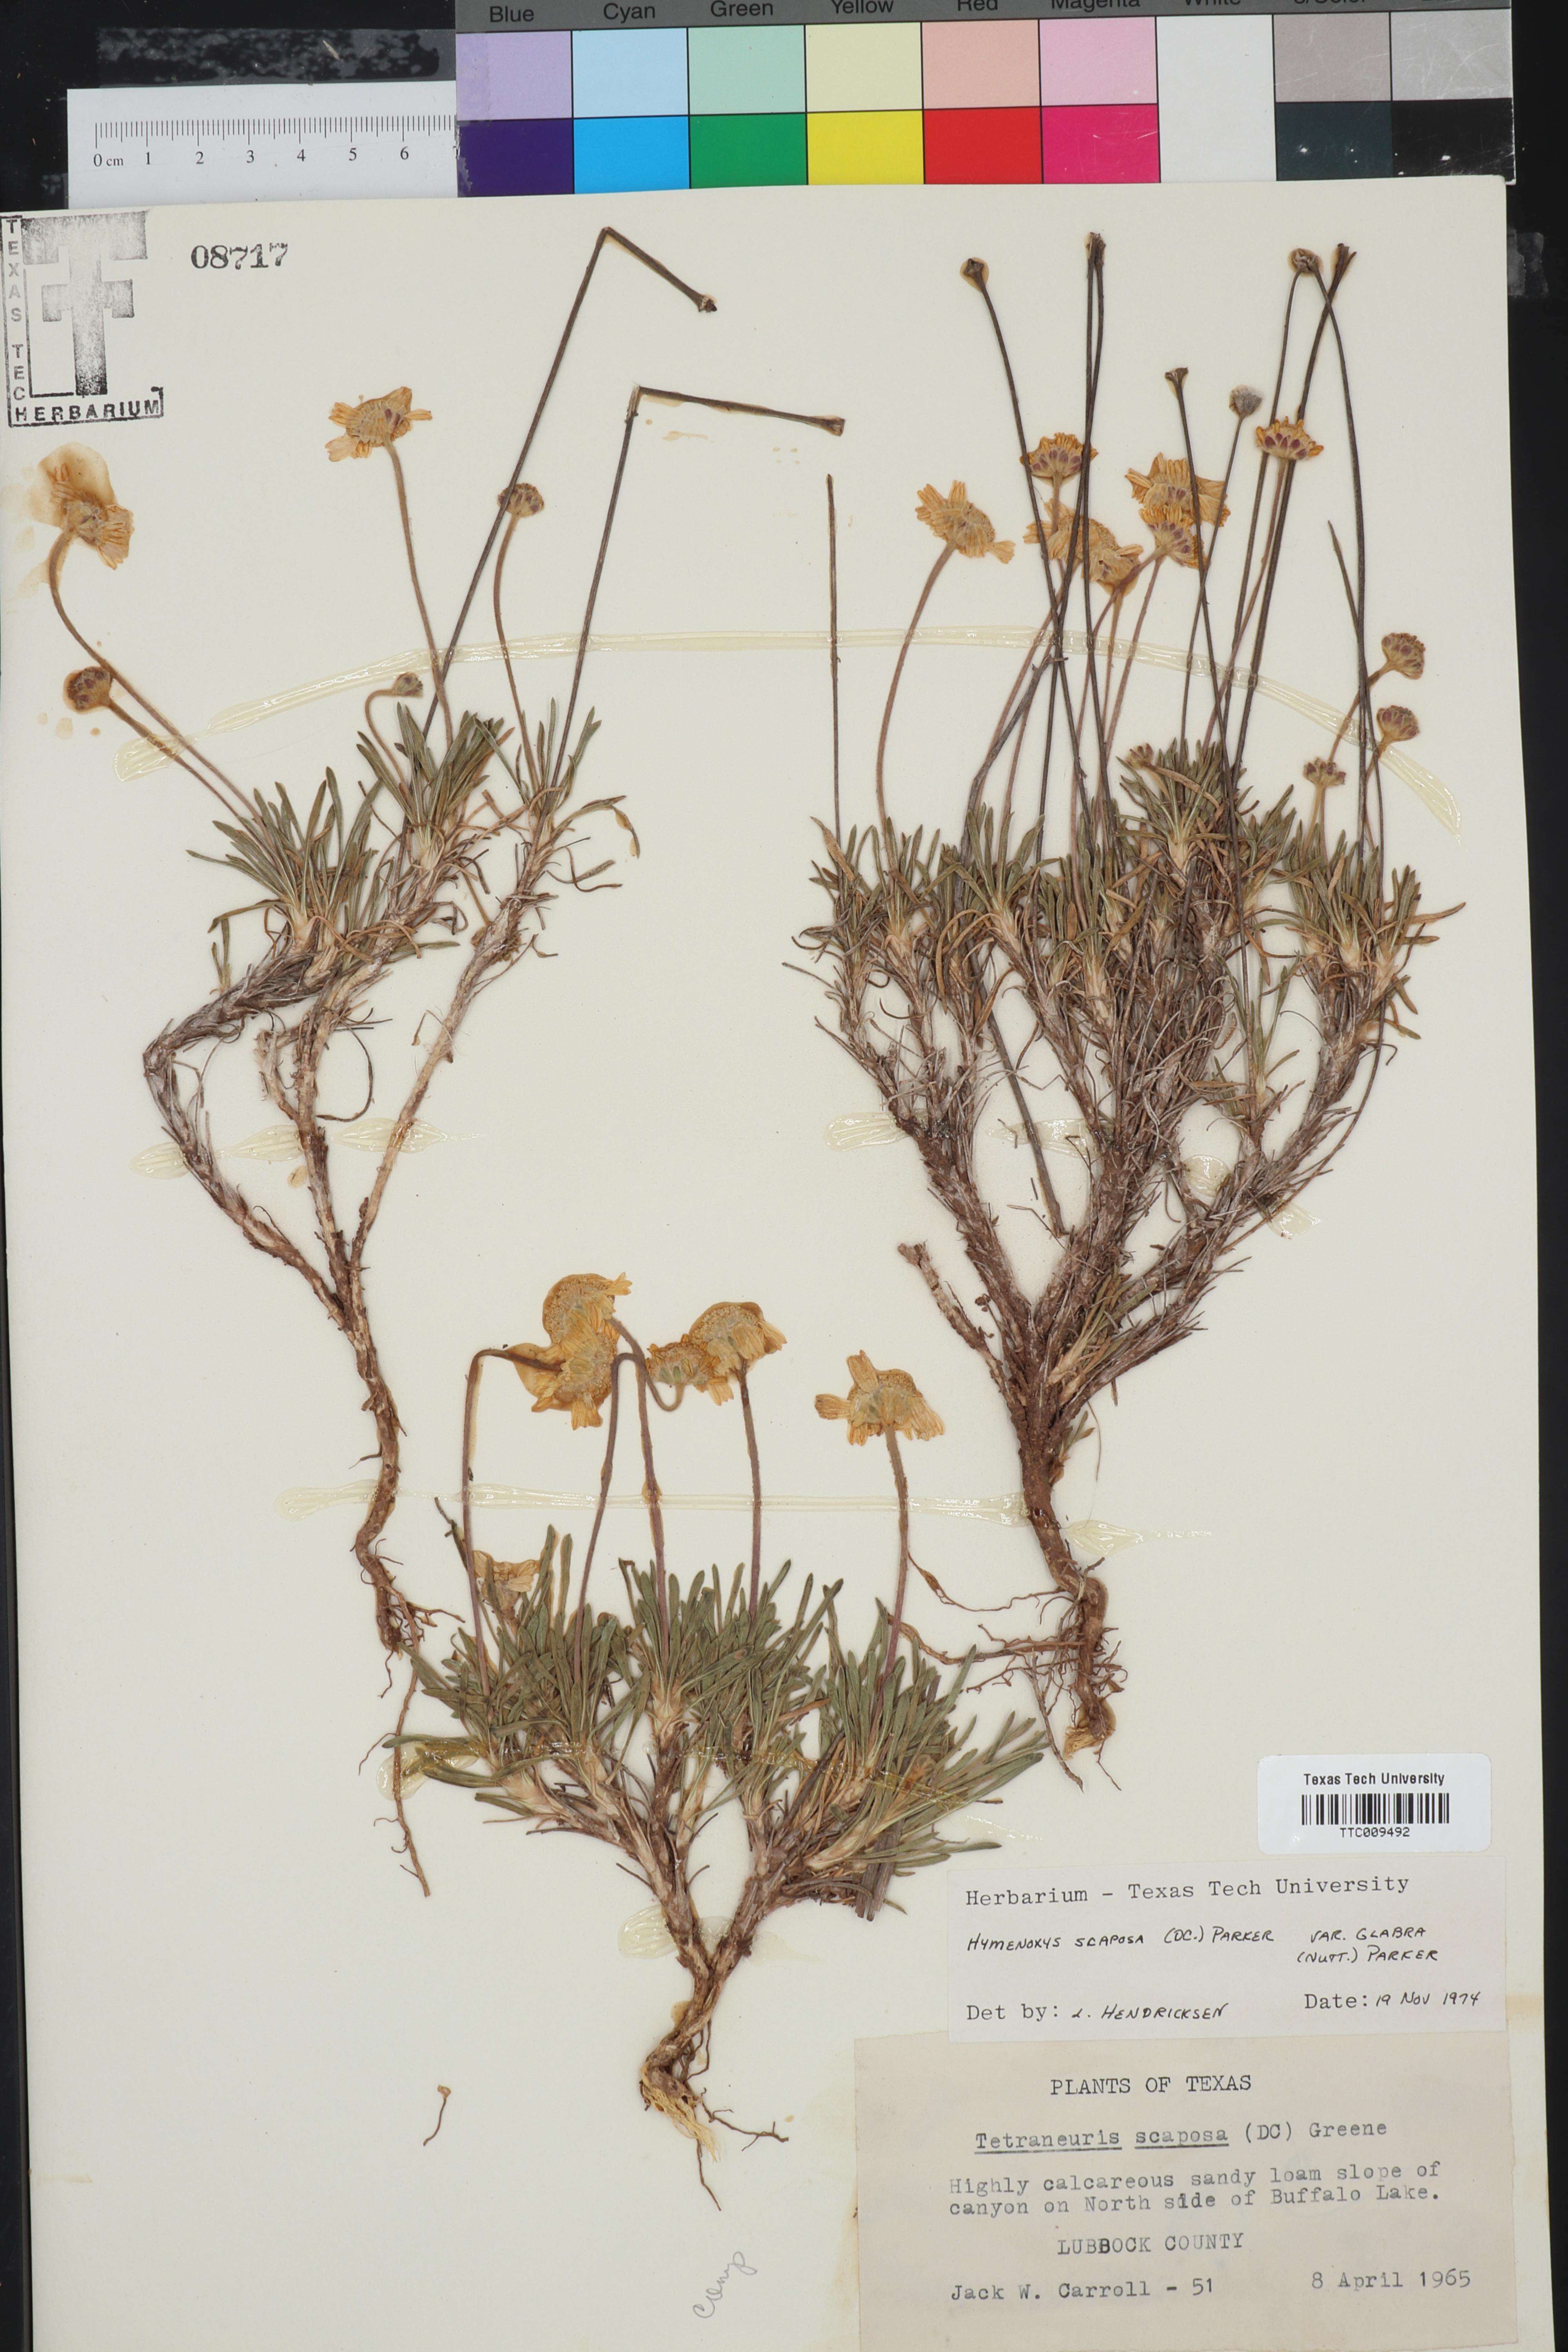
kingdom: Plantae
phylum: Tracheophyta
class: Magnoliopsida
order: Asterales
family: Asteraceae
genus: Tetraneuris
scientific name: Tetraneuris scaposa
